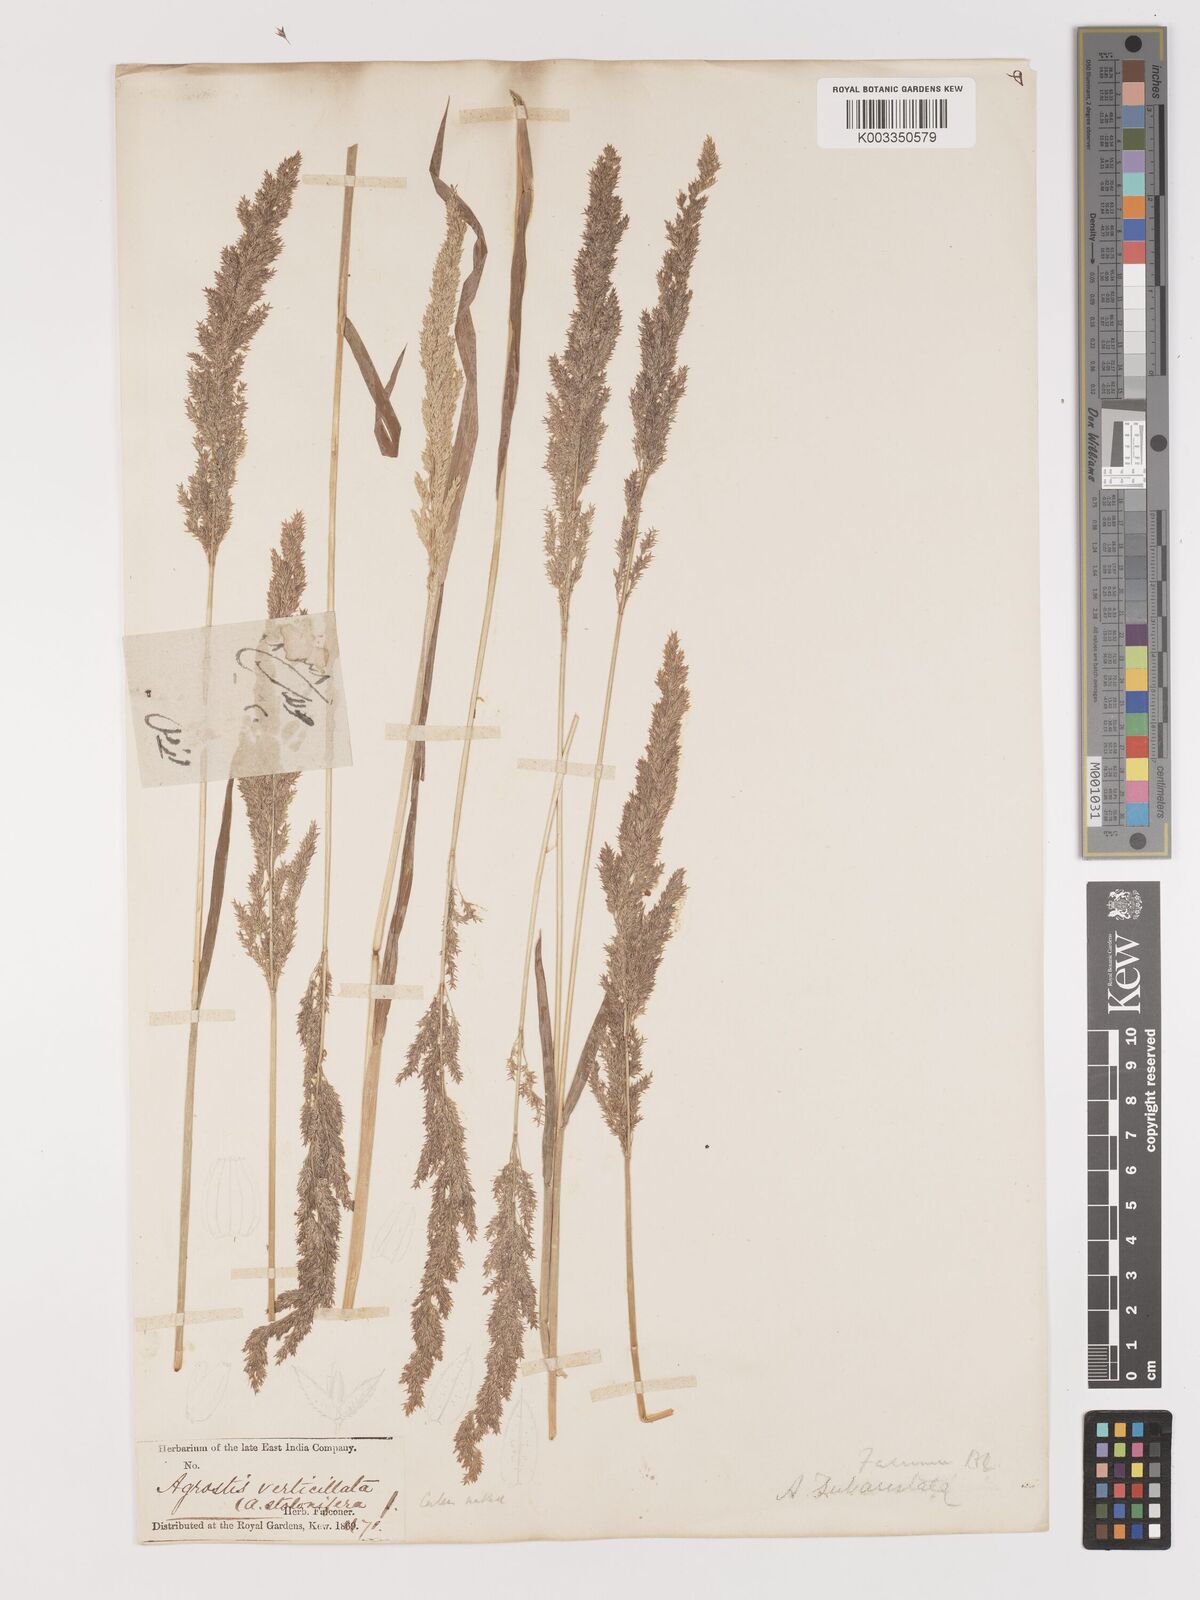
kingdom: Plantae
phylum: Tracheophyta
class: Liliopsida
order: Poales
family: Poaceae
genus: Agropogon
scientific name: Agropogon lutosus
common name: Coast agropogon
